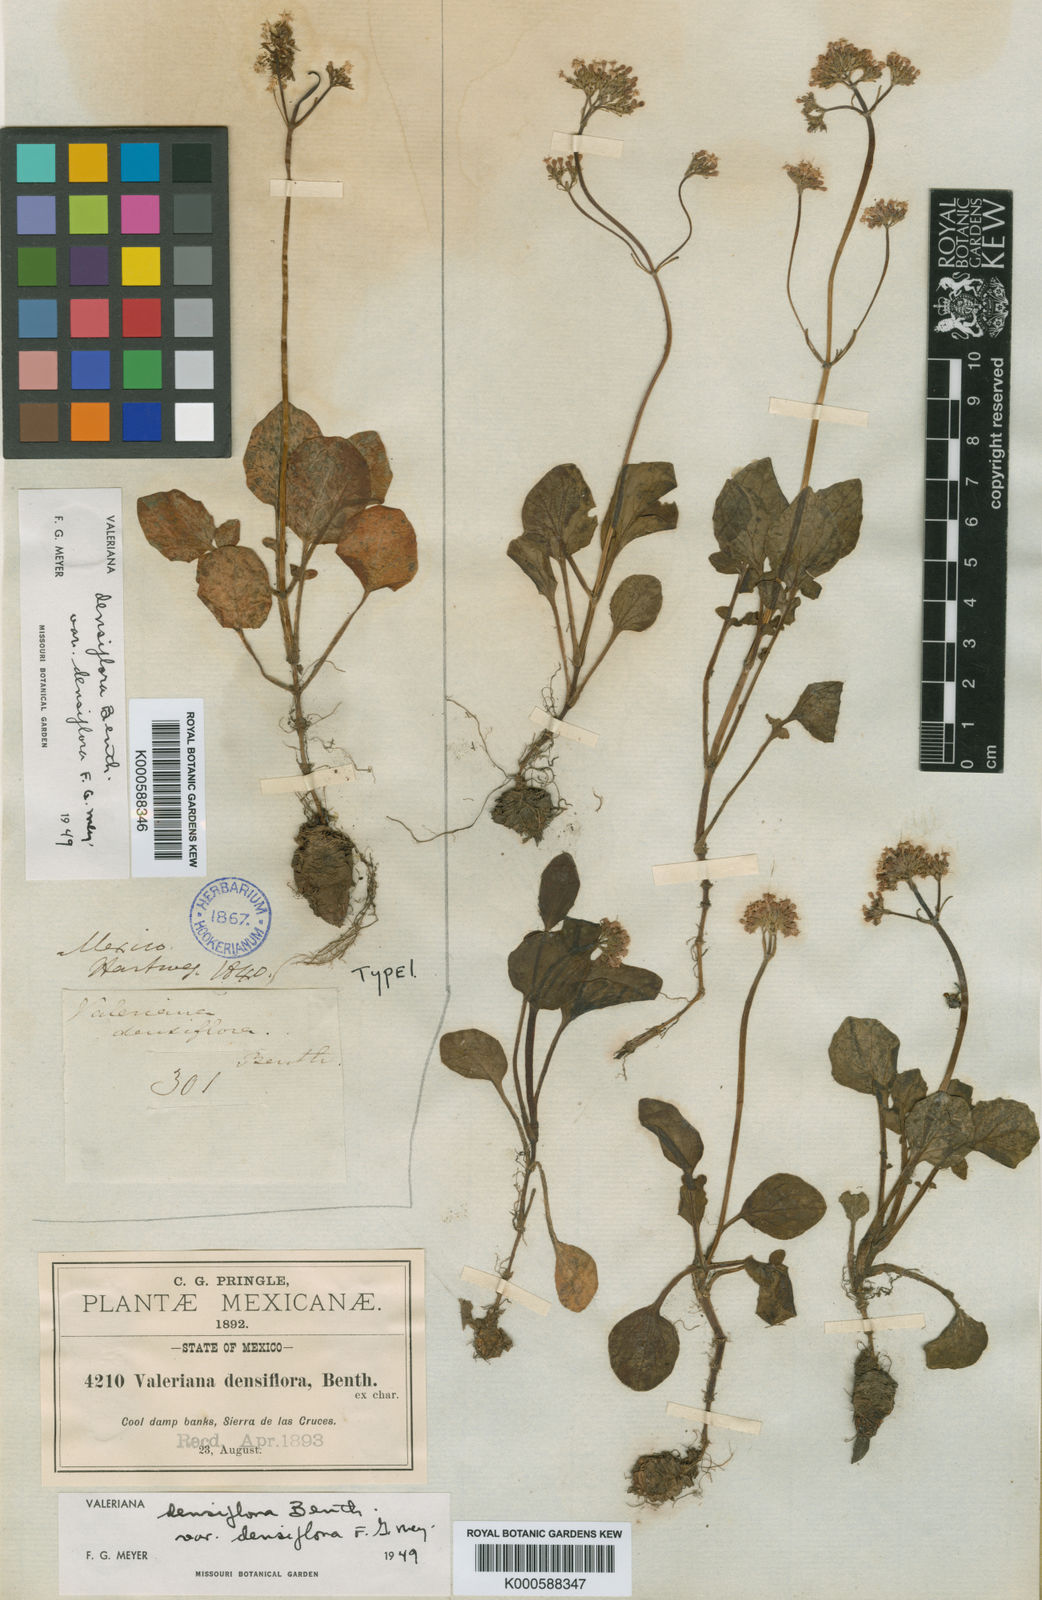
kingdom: Plantae
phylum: Tracheophyta
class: Magnoliopsida
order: Dipsacales
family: Caprifoliaceae
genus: Valeriana
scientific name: Valeriana densiflora
